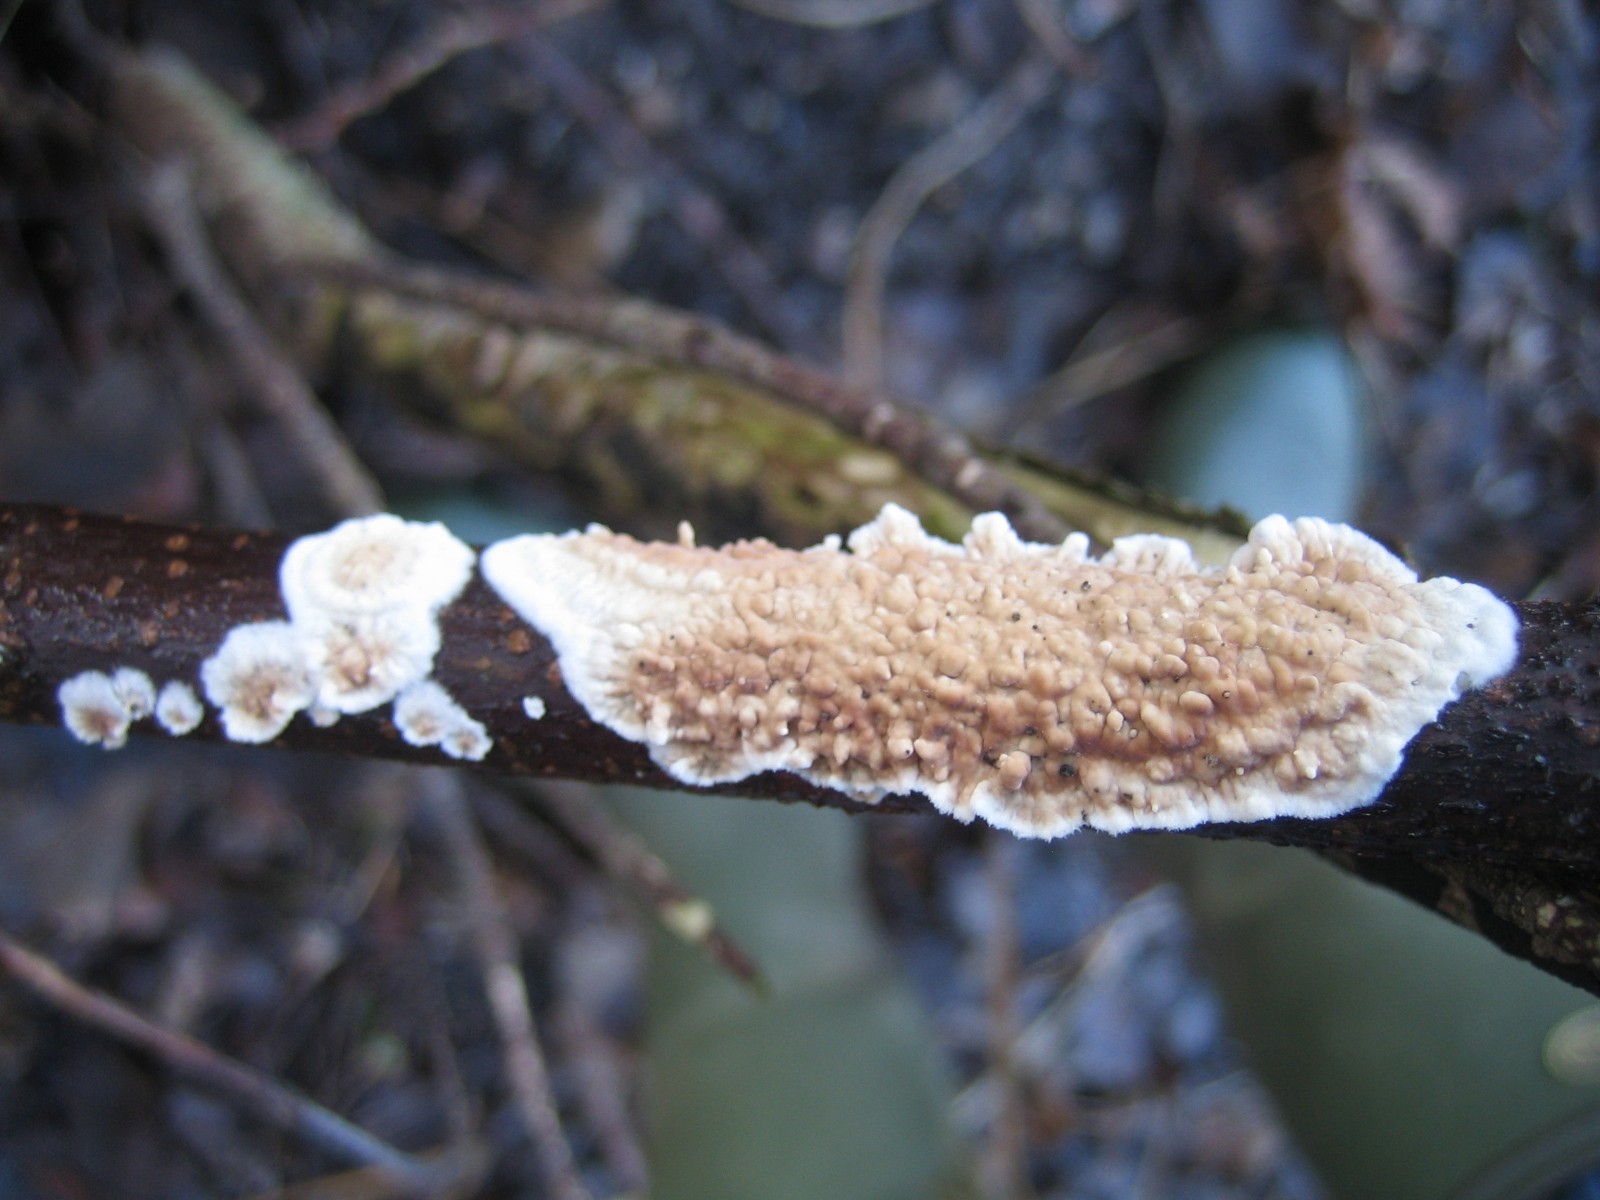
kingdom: Fungi
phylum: Basidiomycota
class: Agaricomycetes
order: Agaricales
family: Physalacriaceae
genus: Cylindrobasidium
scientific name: Cylindrobasidium evolvens
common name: sprækkehinde
